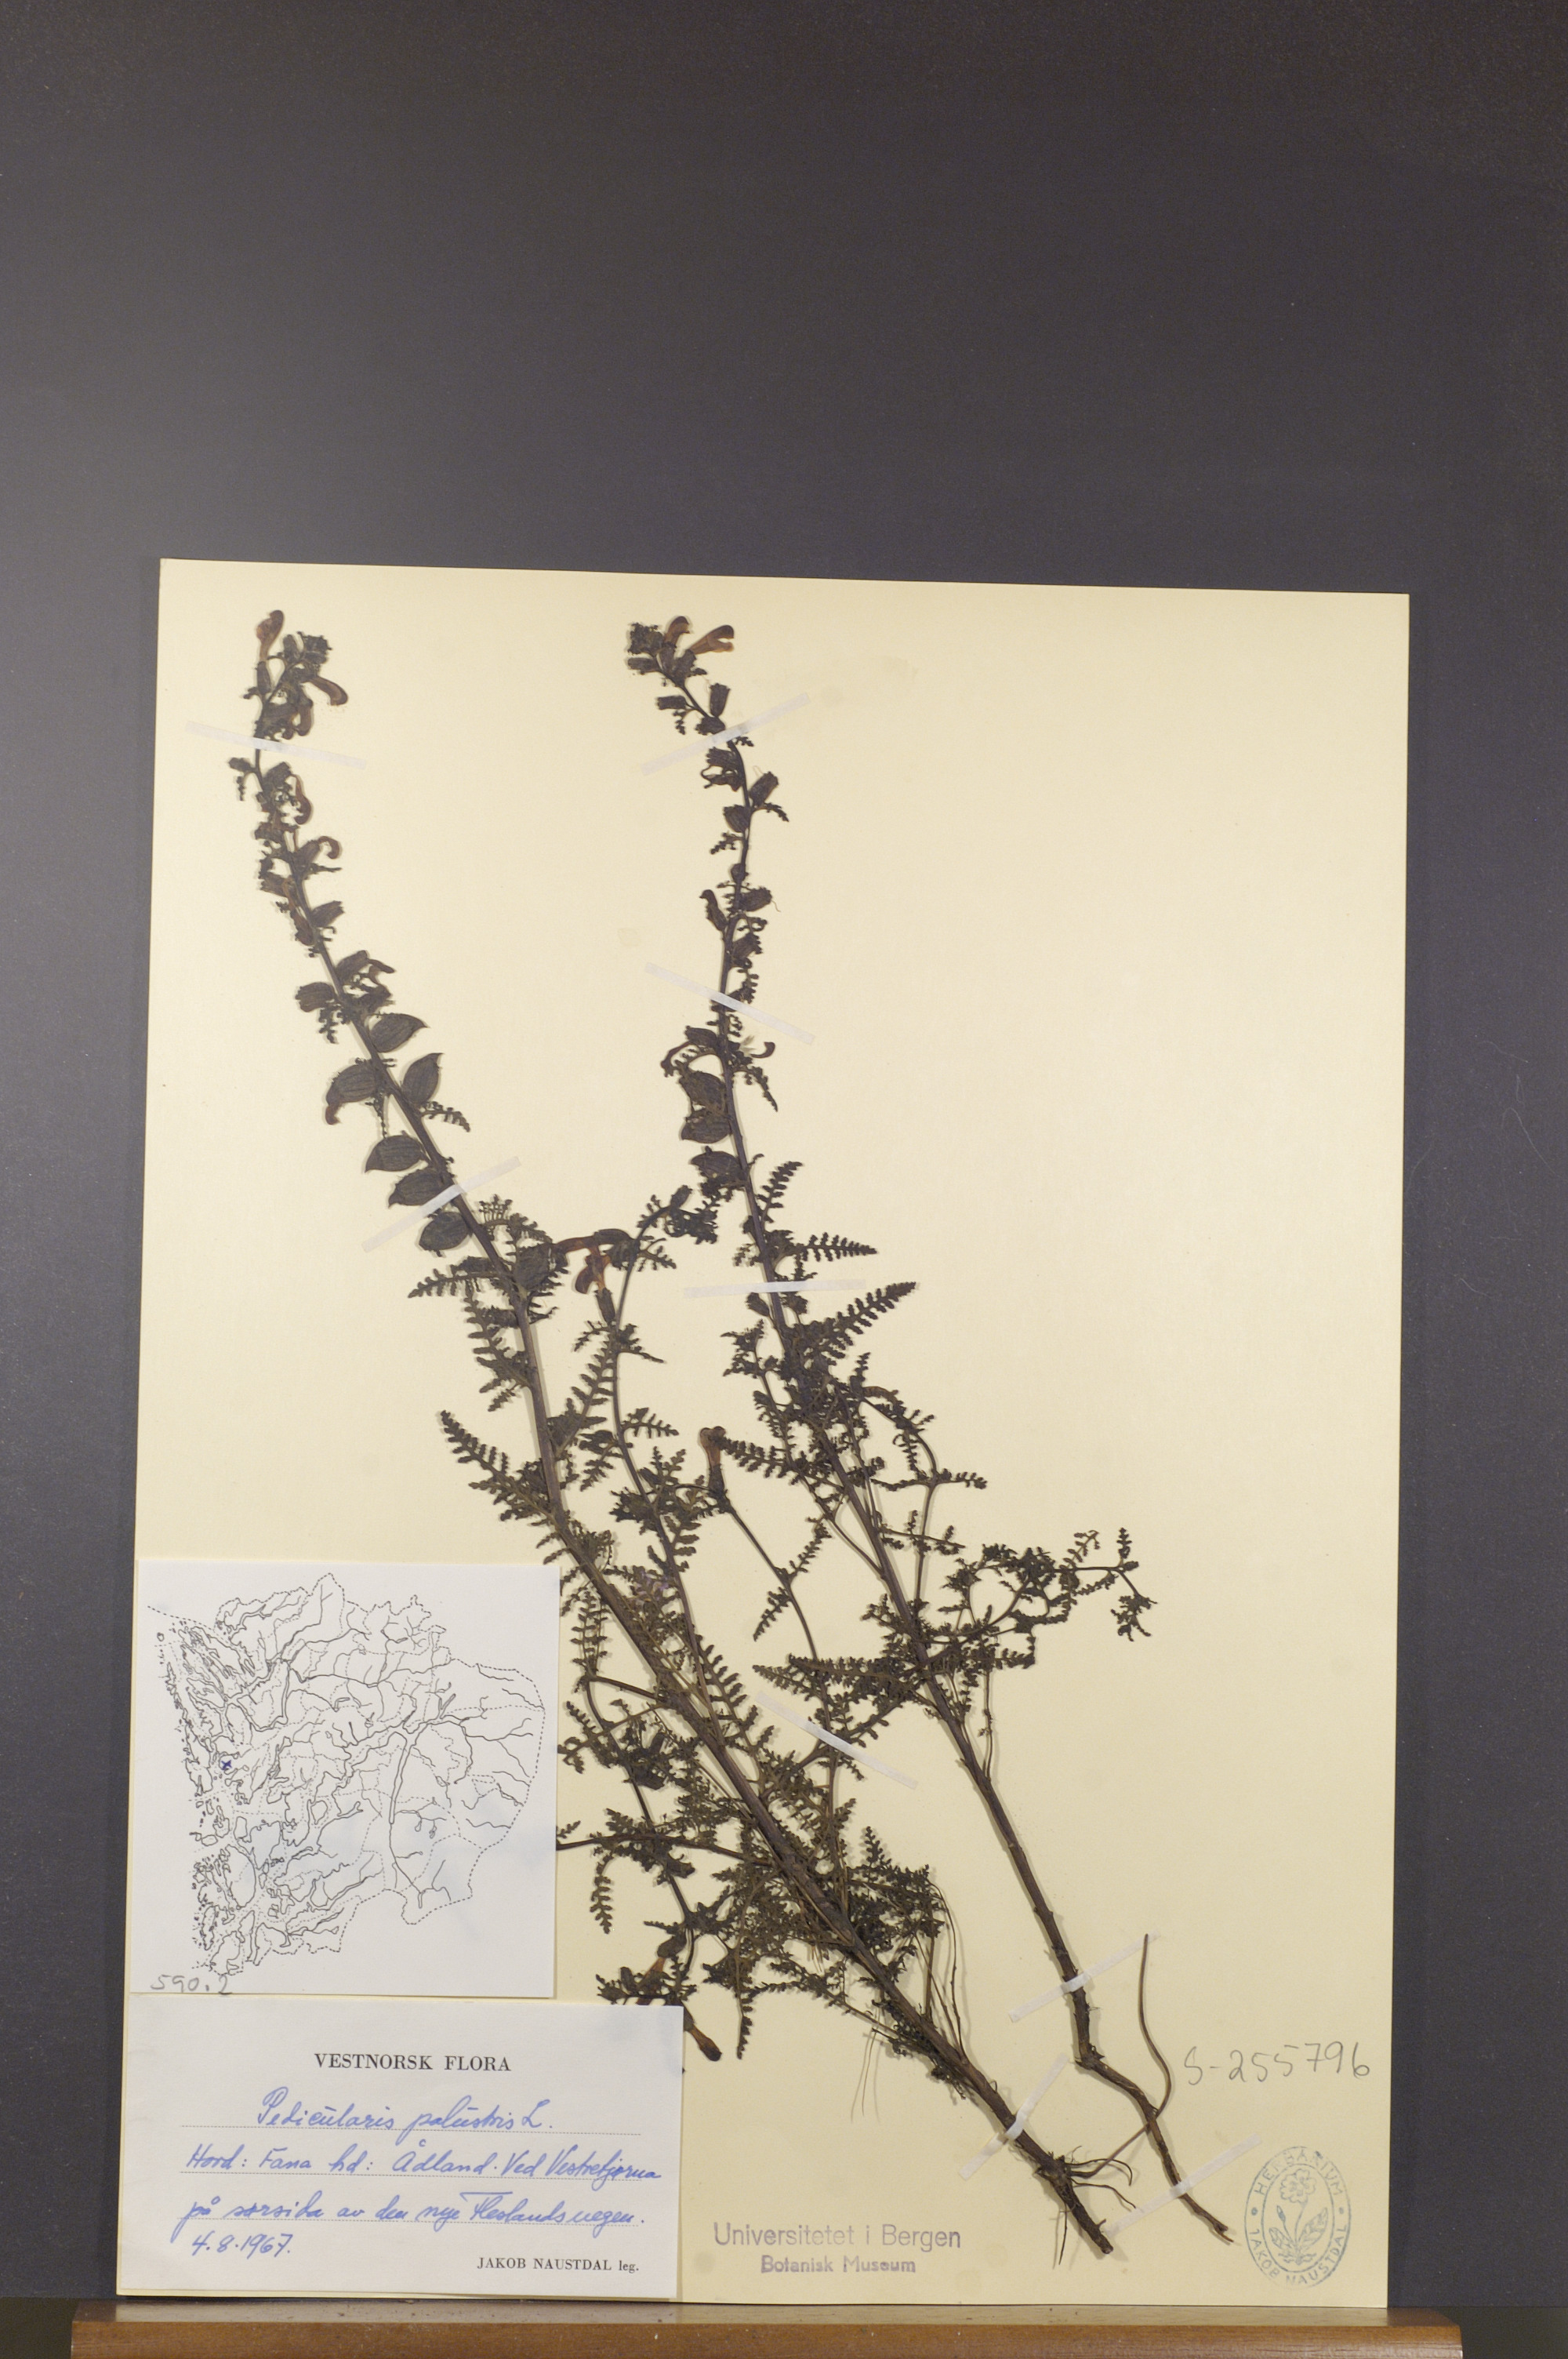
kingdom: Plantae
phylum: Tracheophyta
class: Magnoliopsida
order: Lamiales
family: Orobanchaceae
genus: Pedicularis
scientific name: Pedicularis palustris
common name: Marsh lousewort
